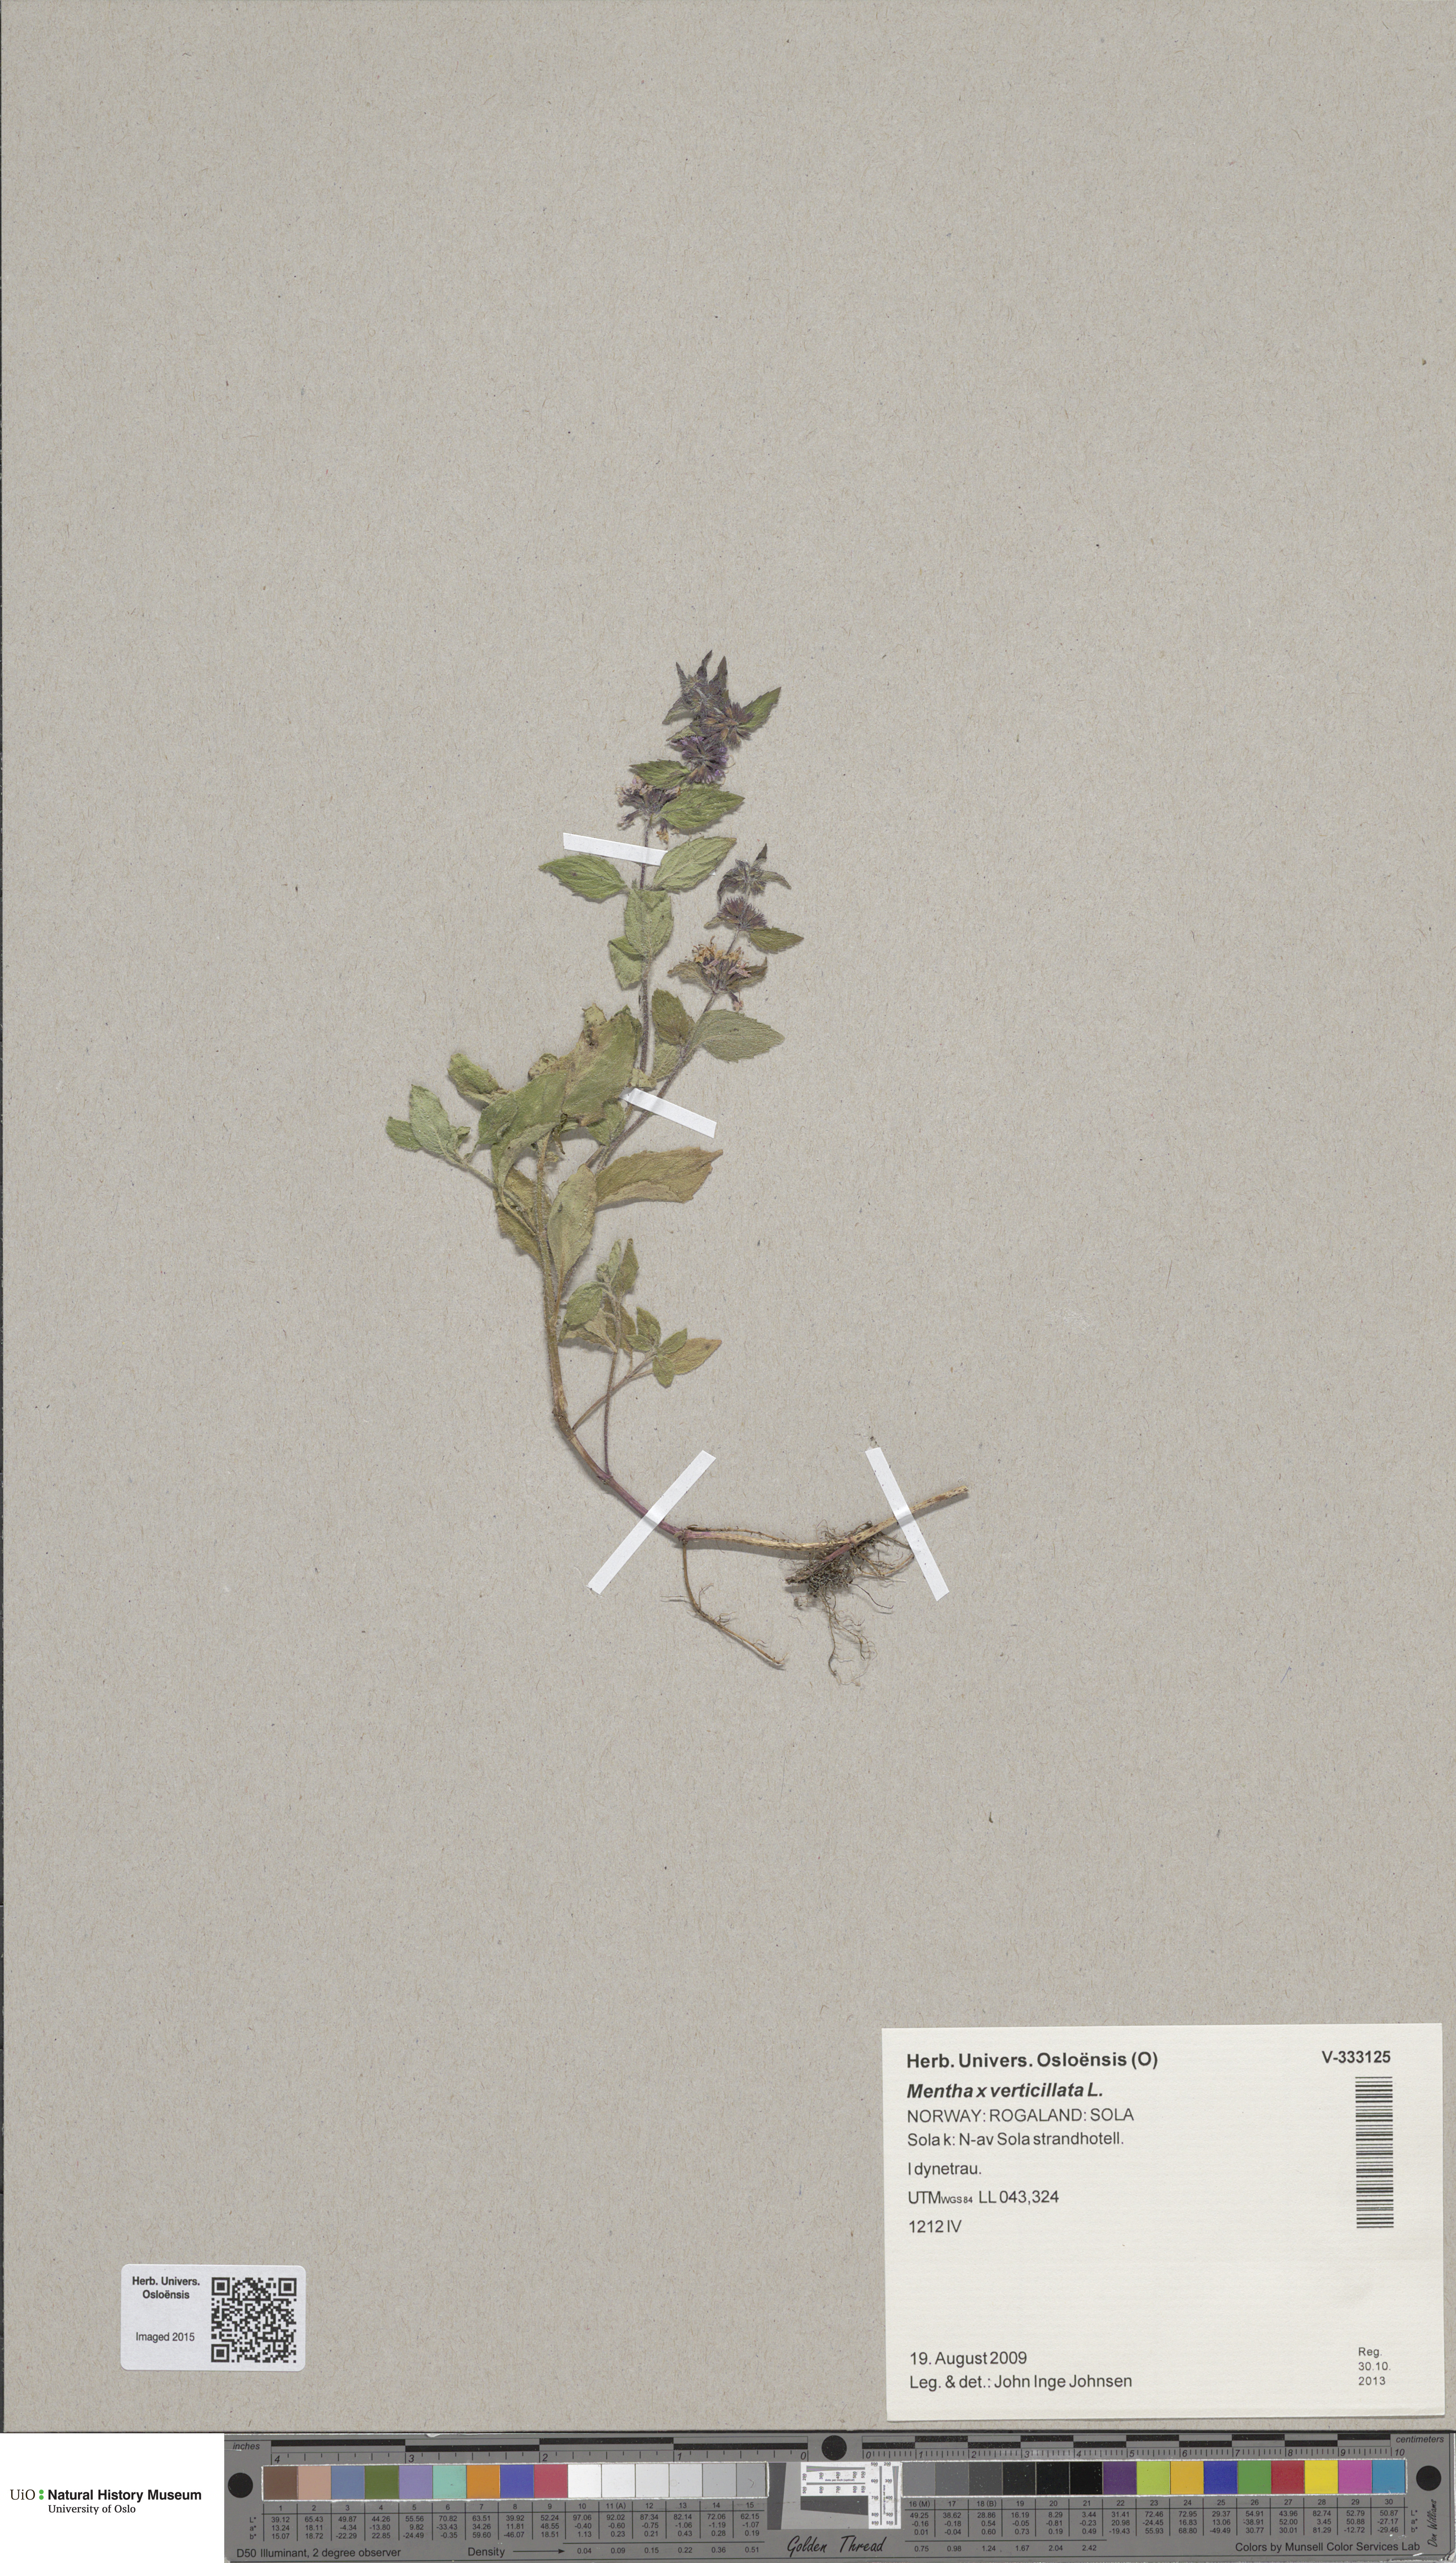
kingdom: Plantae
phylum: Tracheophyta
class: Magnoliopsida
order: Lamiales
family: Lamiaceae
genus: Mentha
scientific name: Mentha arvensis
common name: Corn mint
